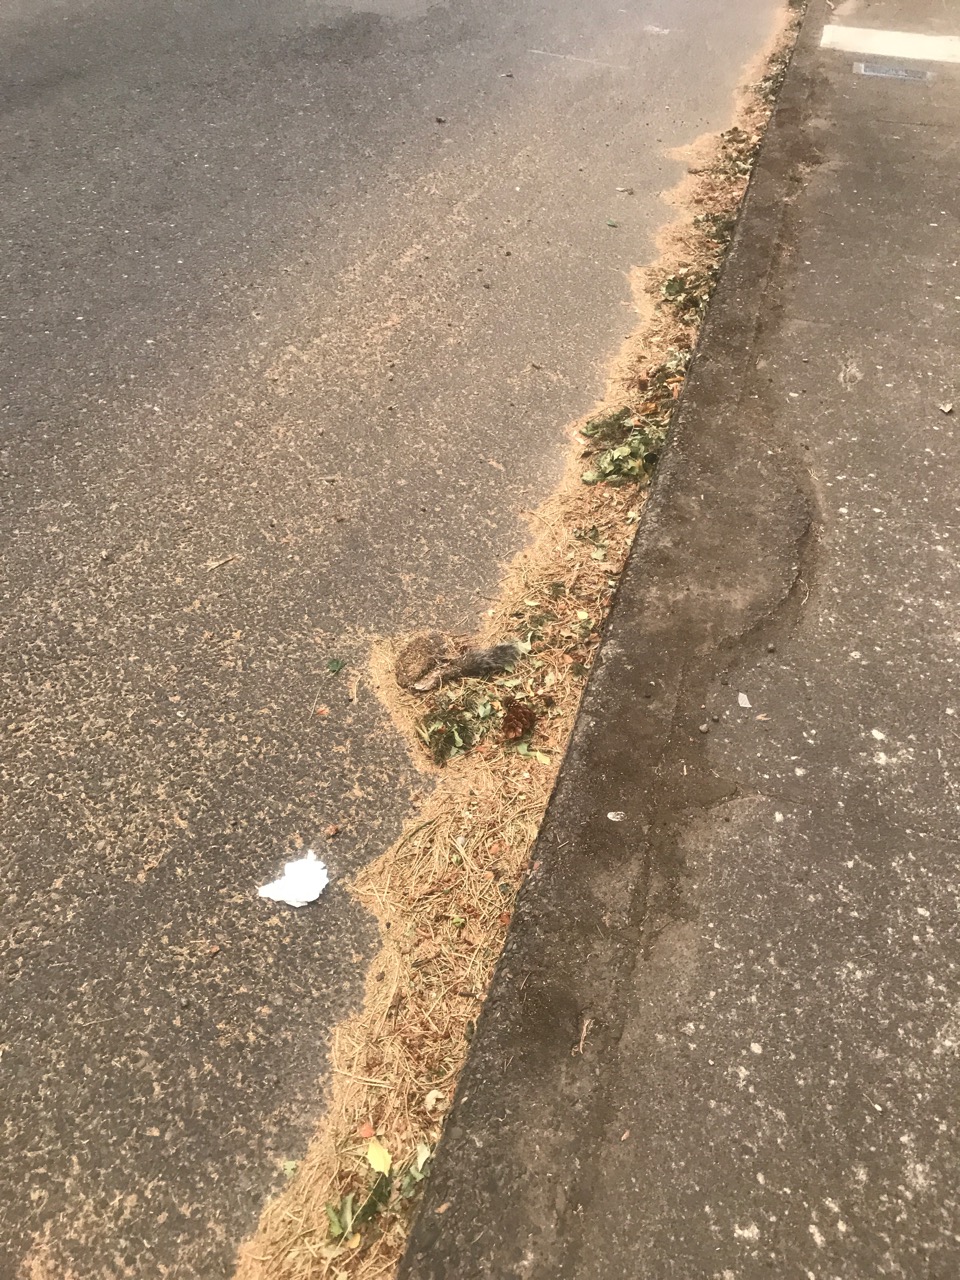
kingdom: Animalia
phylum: Chordata
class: Mammalia
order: Rodentia
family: Sciuridae
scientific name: Sciuridae
